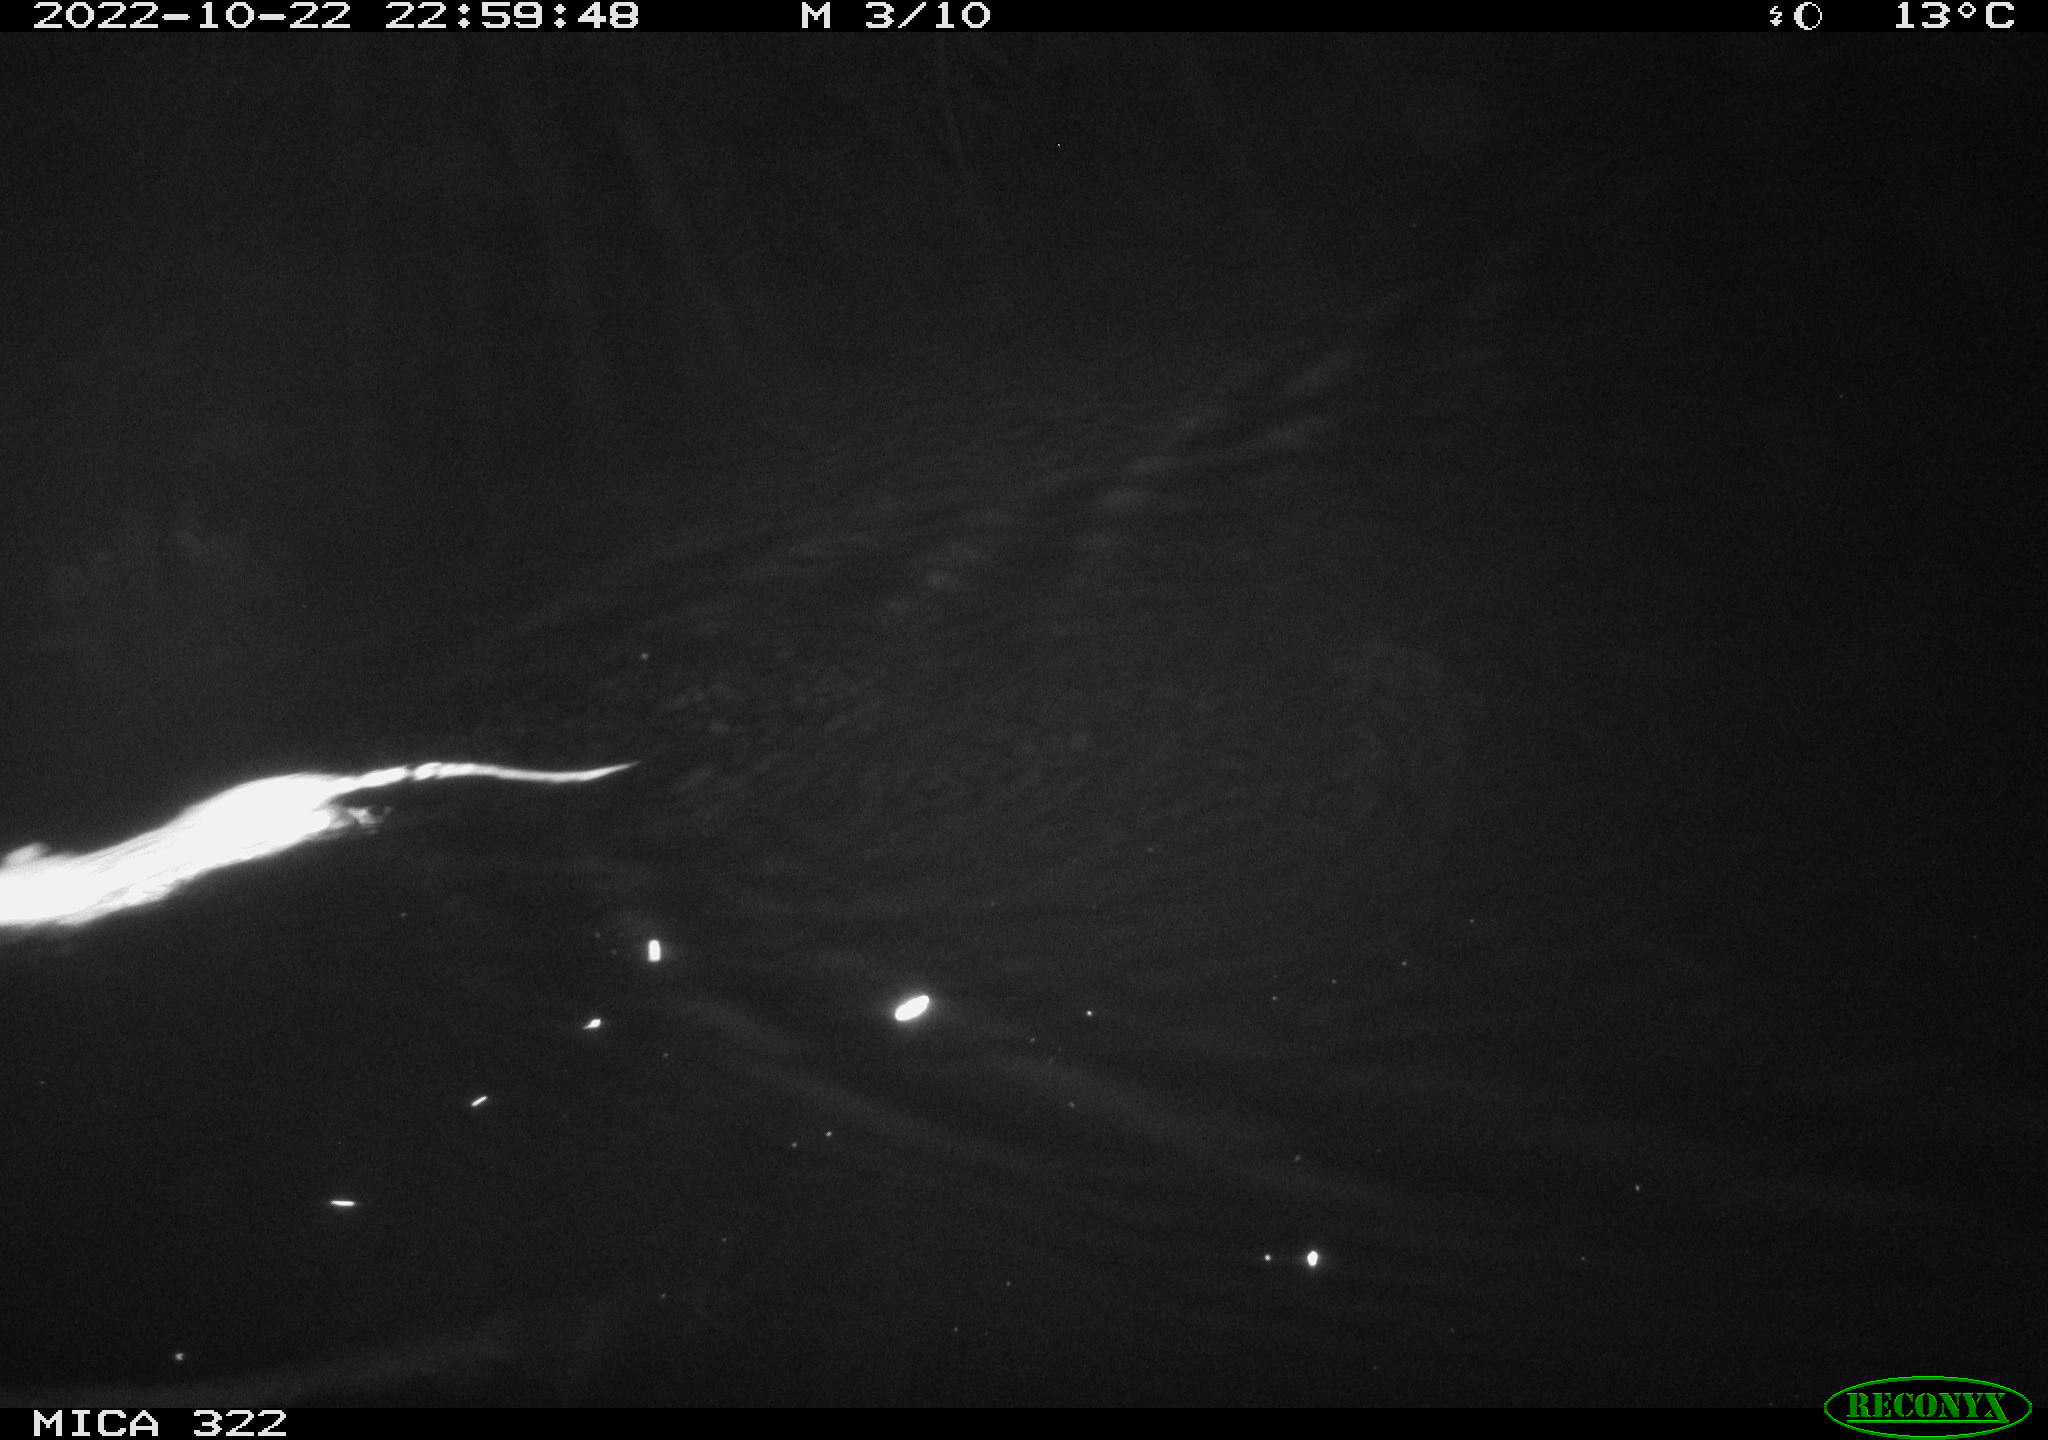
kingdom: Animalia
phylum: Chordata
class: Mammalia
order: Rodentia
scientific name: Rodentia
